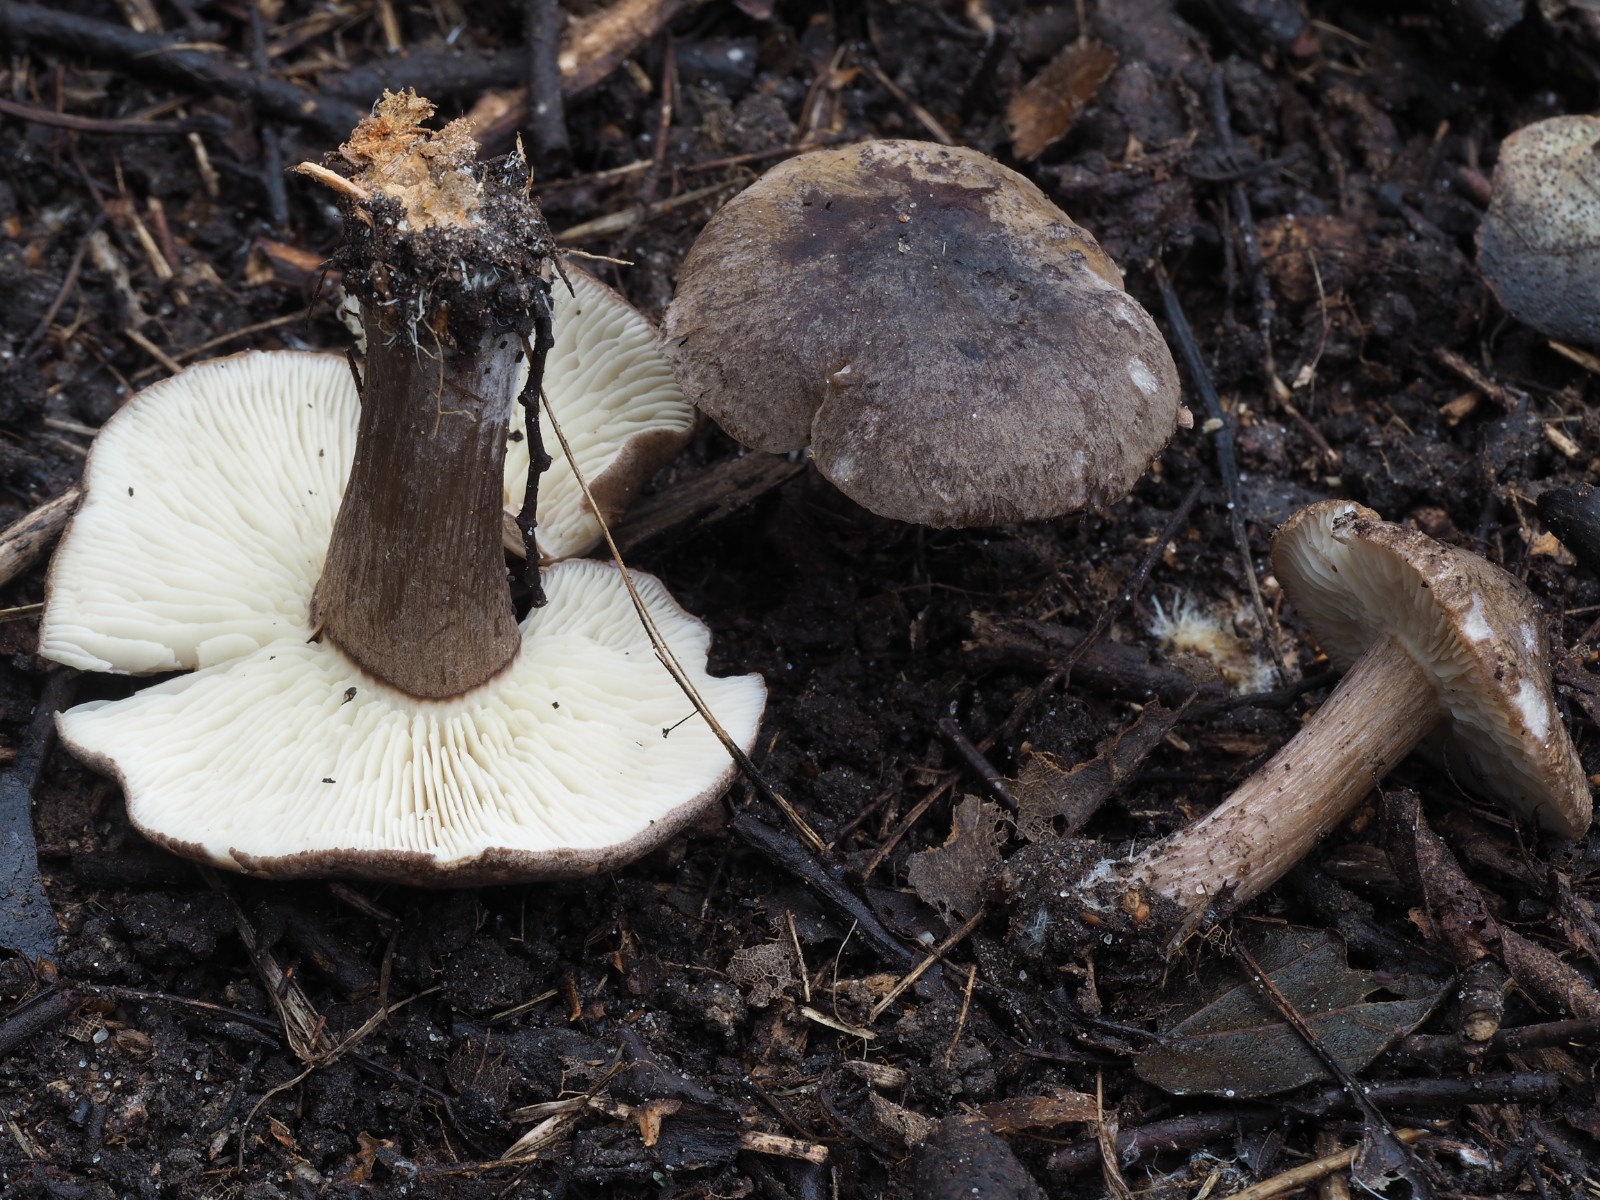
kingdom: Fungi
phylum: Basidiomycota
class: Agaricomycetes
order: Agaricales
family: Lyophyllaceae
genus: Calocybe
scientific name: Calocybe obscurissima
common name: mørk fagerhat
